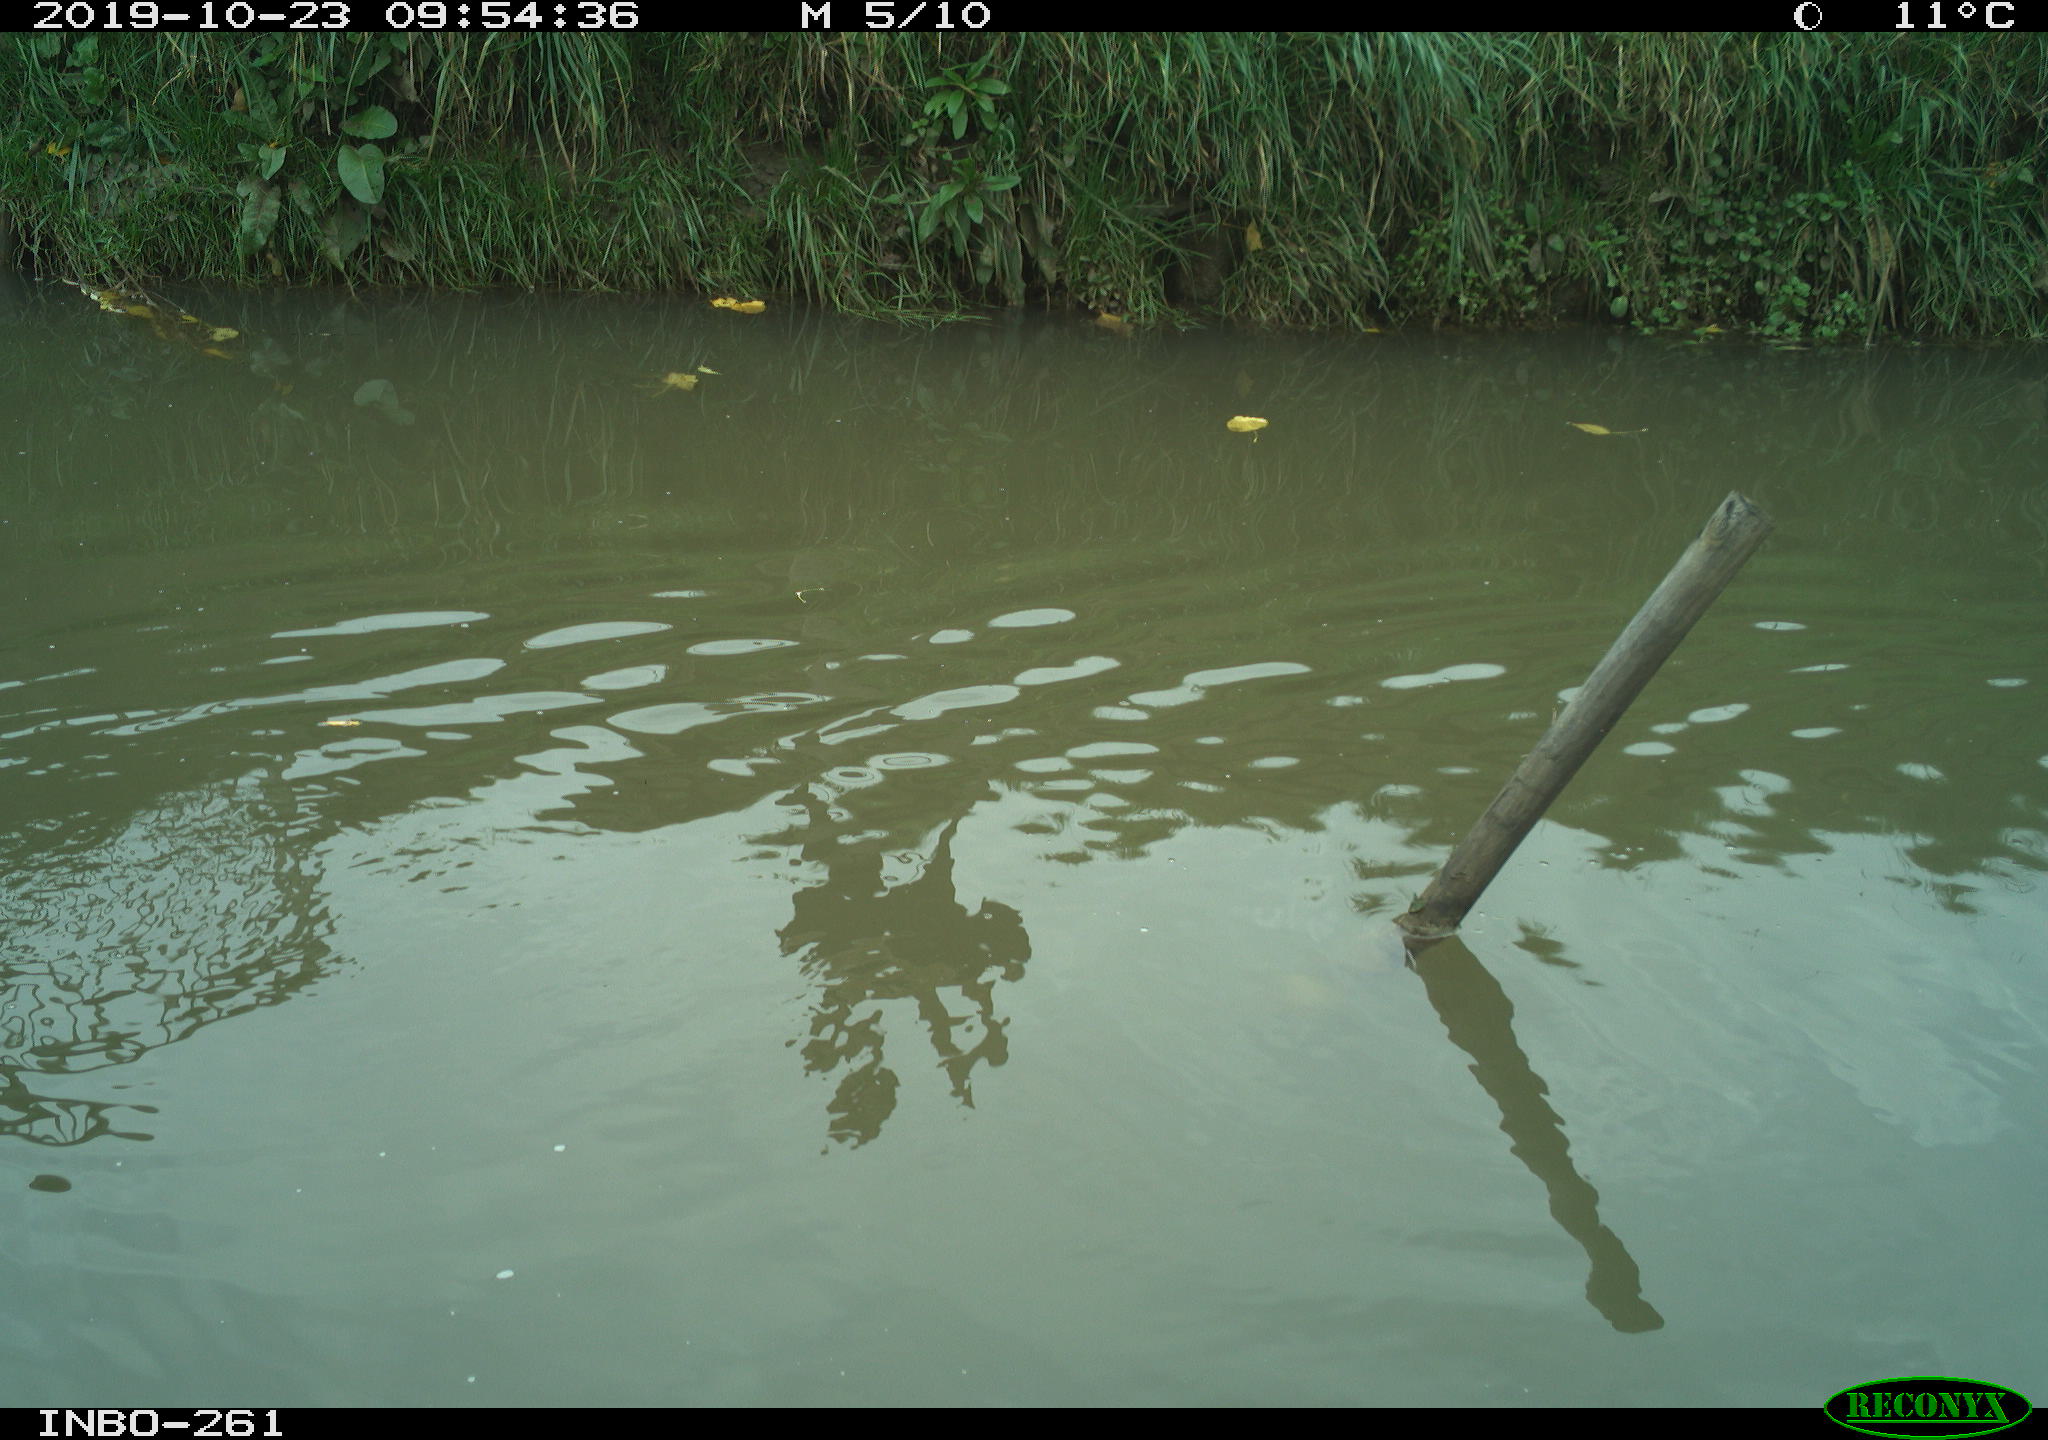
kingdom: Animalia
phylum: Chordata
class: Aves
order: Anseriformes
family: Anatidae
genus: Anas
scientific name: Anas platyrhynchos
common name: Mallard
